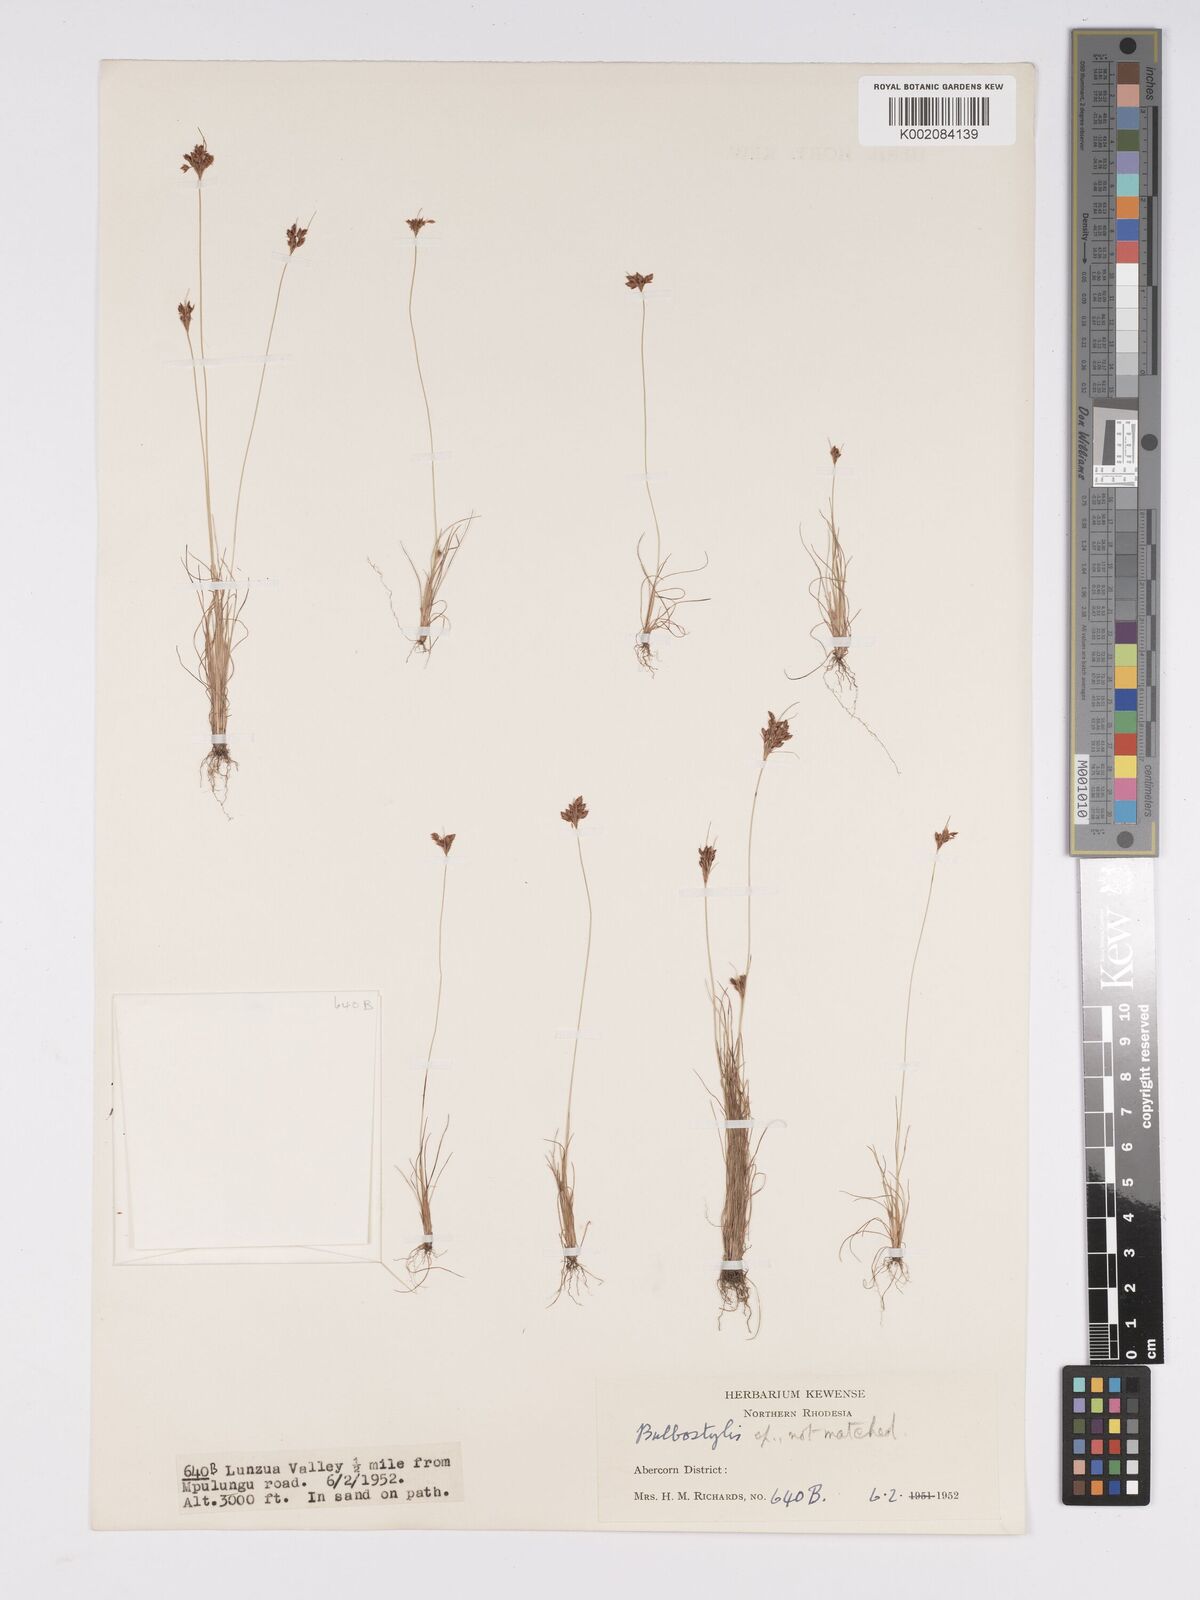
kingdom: Plantae
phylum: Tracheophyta
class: Liliopsida
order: Poales
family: Cyperaceae
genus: Bulbostylis
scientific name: Bulbostylis
